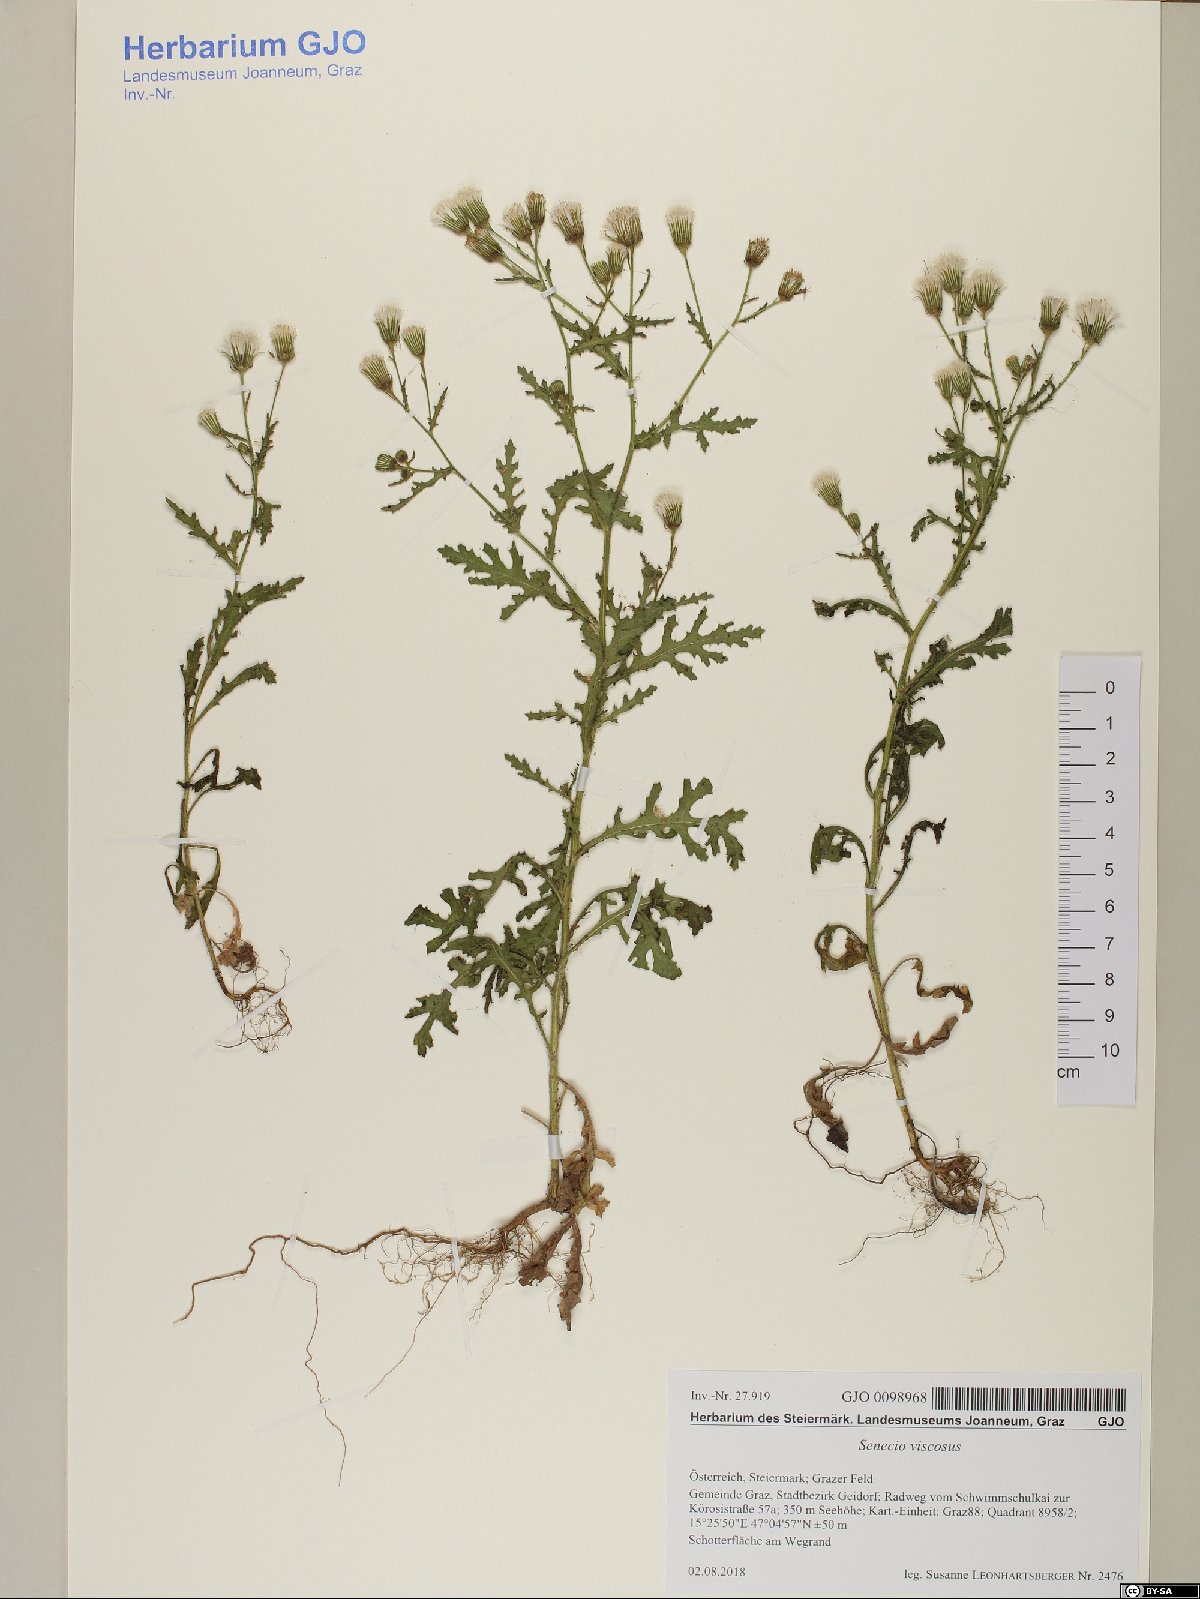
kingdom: Plantae
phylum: Tracheophyta
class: Magnoliopsida
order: Asterales
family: Asteraceae
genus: Senecio
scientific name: Senecio viscosus
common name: Sticky groundsel
